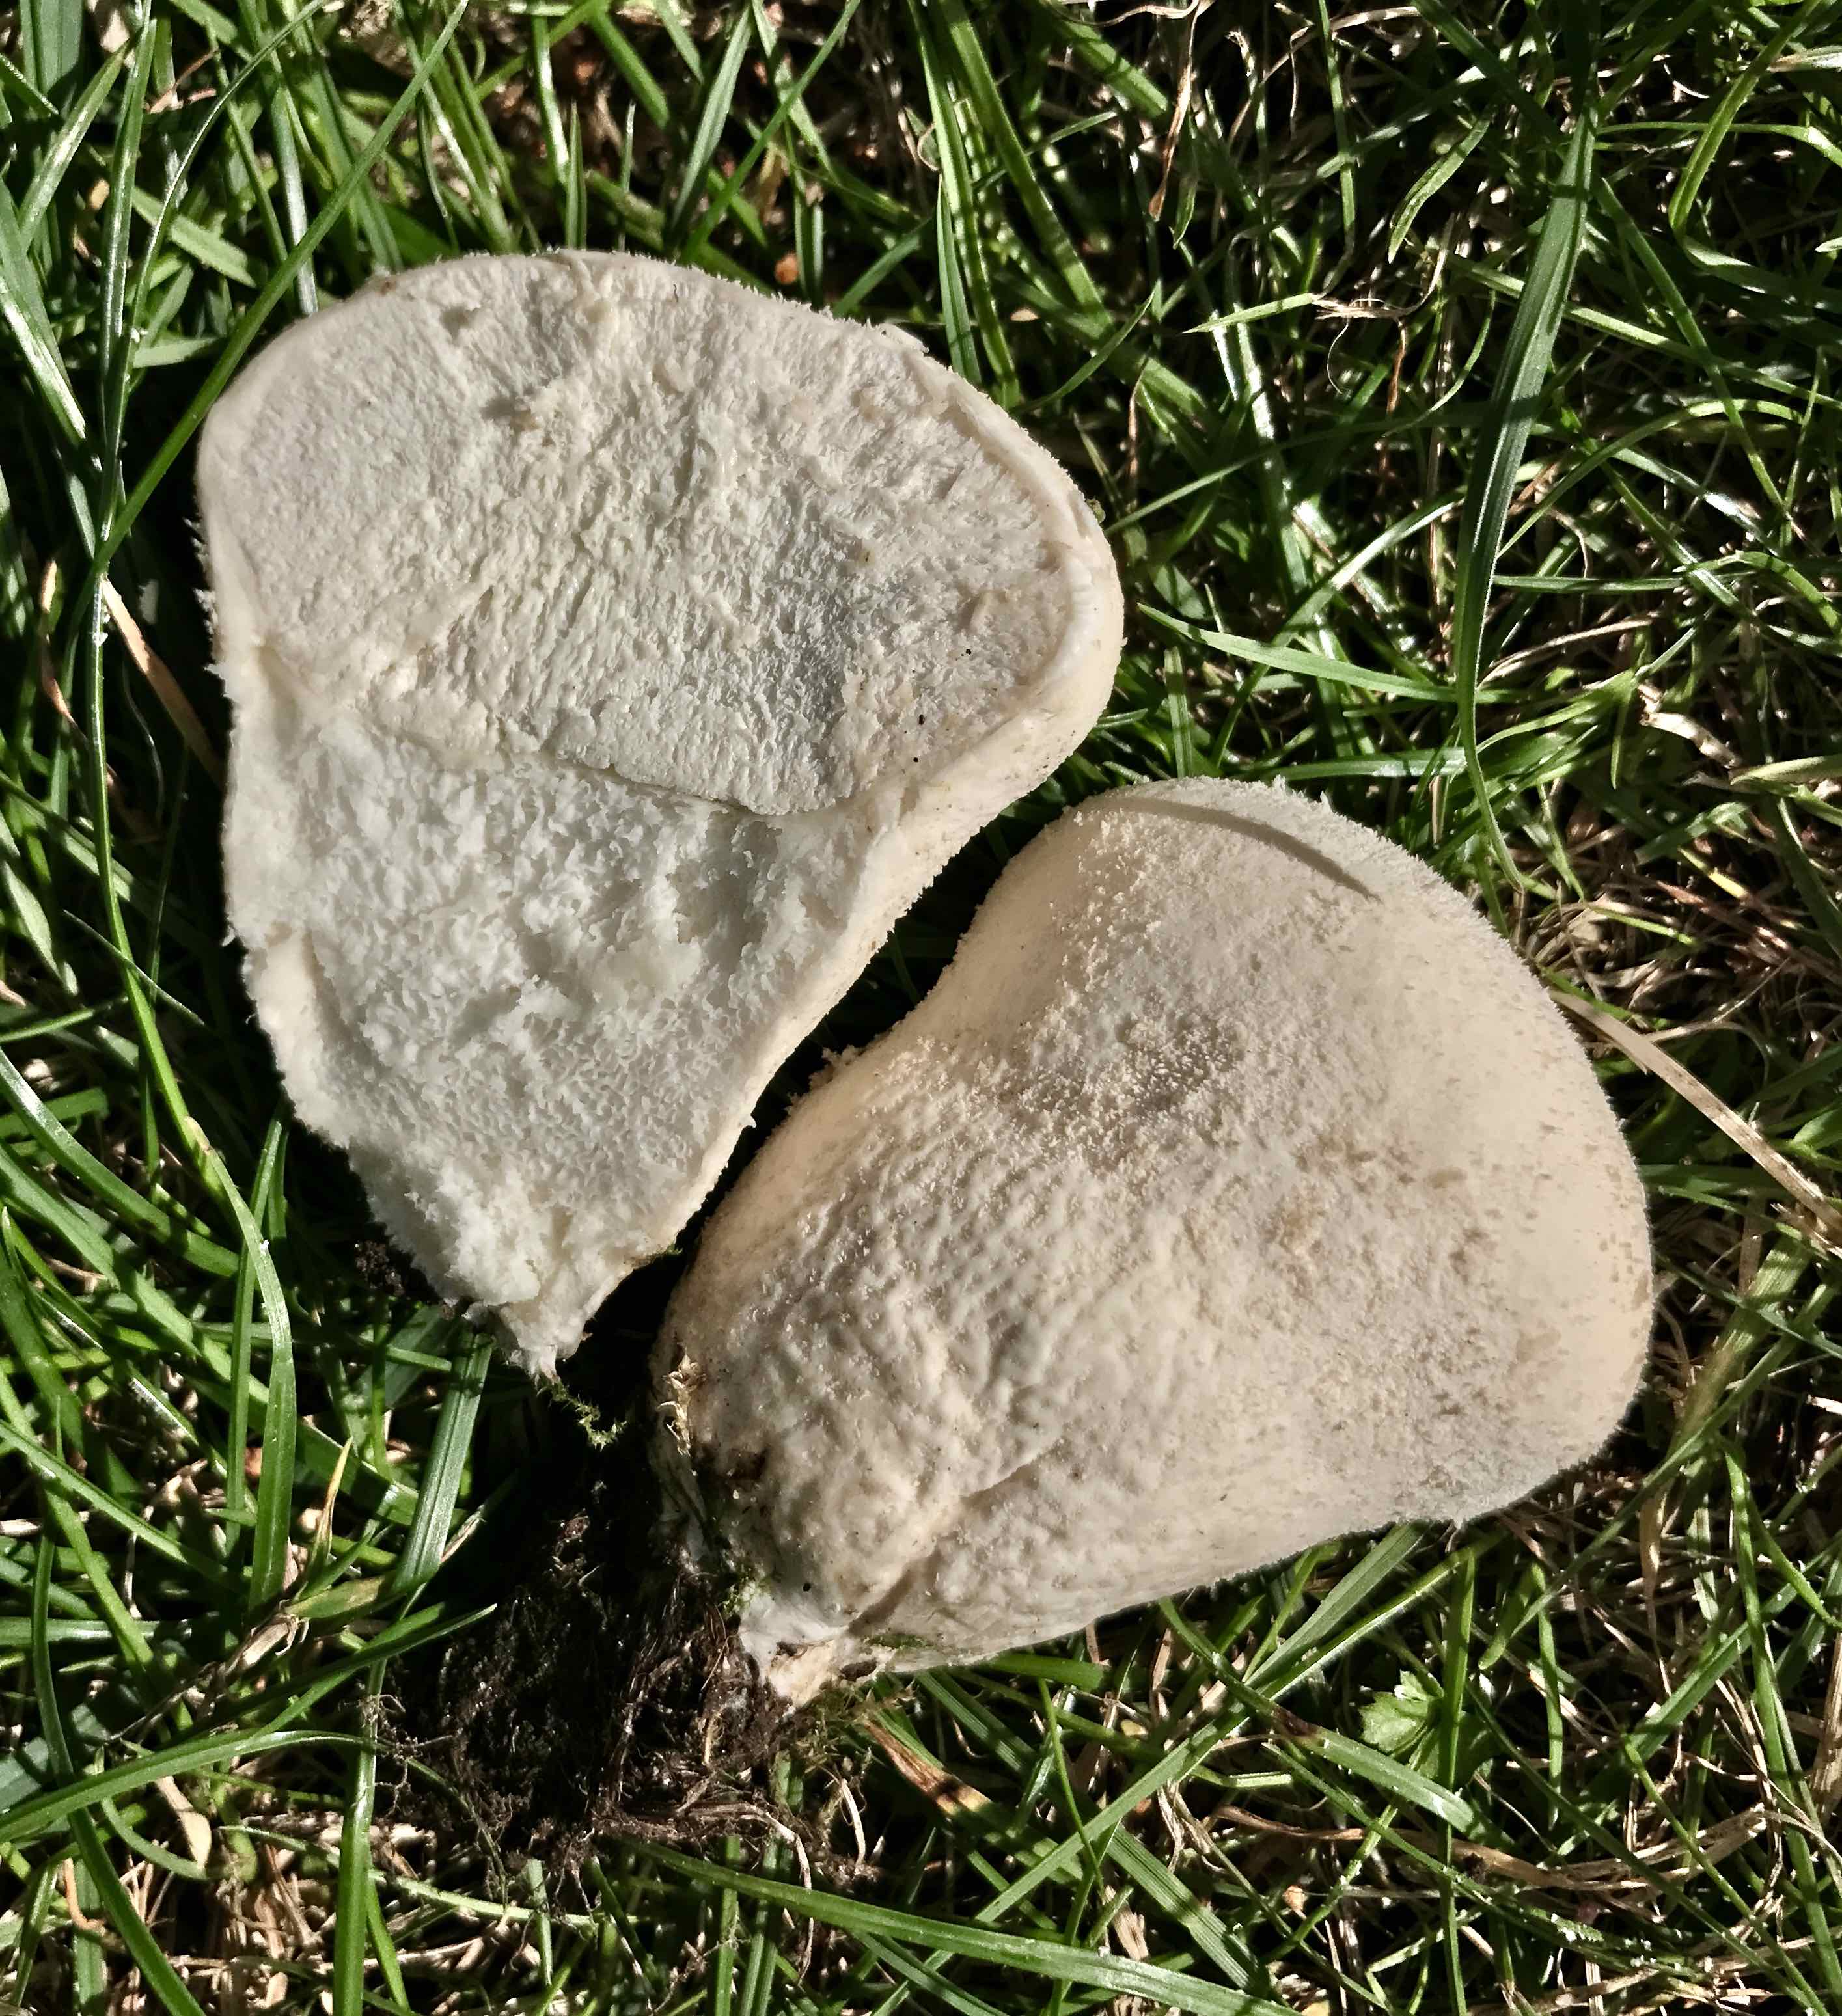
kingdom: Fungi
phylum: Basidiomycota
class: Agaricomycetes
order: Agaricales
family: Lycoperdaceae
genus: Lycoperdon
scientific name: Lycoperdon pratense
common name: flad støvbold
